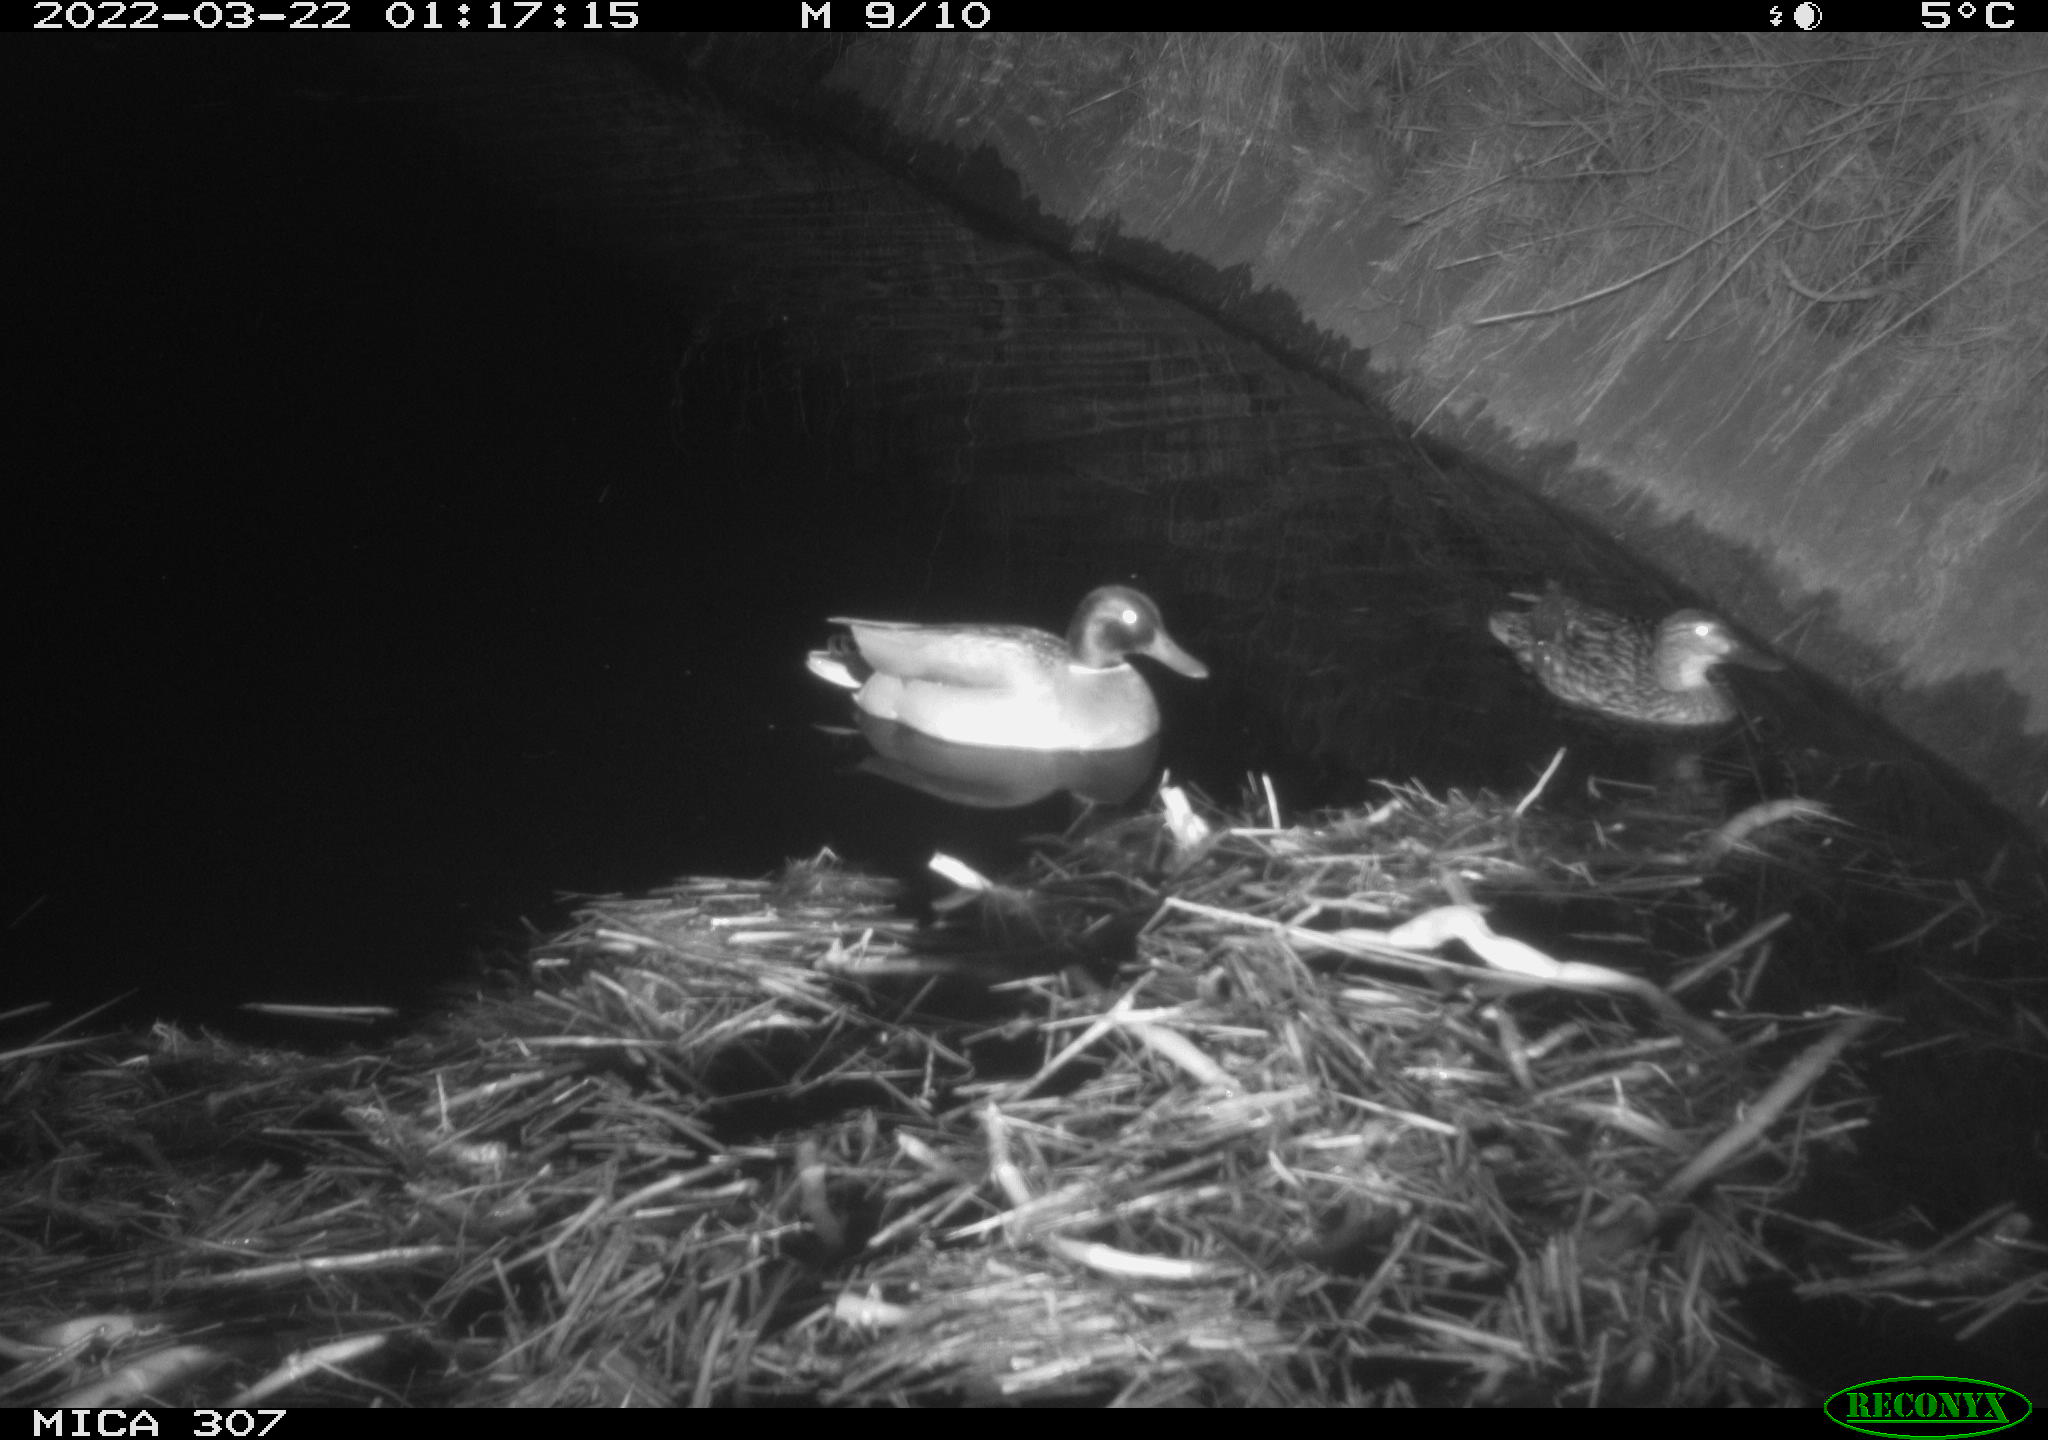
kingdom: Animalia
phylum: Chordata
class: Aves
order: Anseriformes
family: Anatidae
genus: Anas
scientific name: Anas platyrhynchos
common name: Mallard
